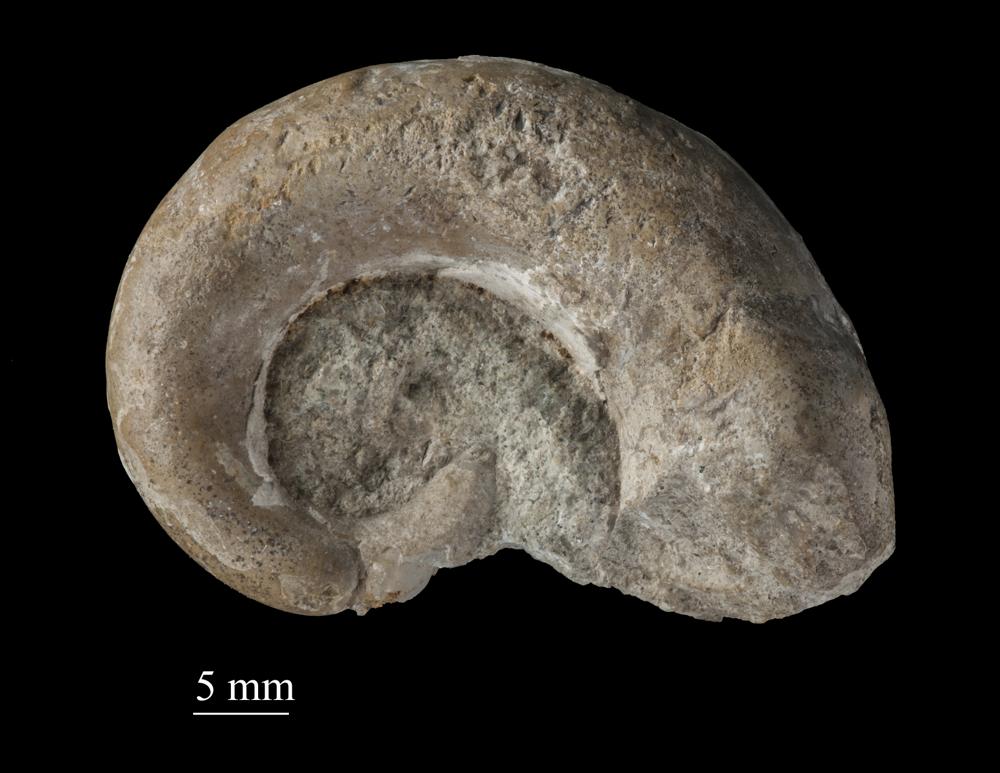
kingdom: Animalia
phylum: Mollusca
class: Gastropoda
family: Ophiletidae
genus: Asgardaspira
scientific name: Asgardaspira Lytospira evolvens
